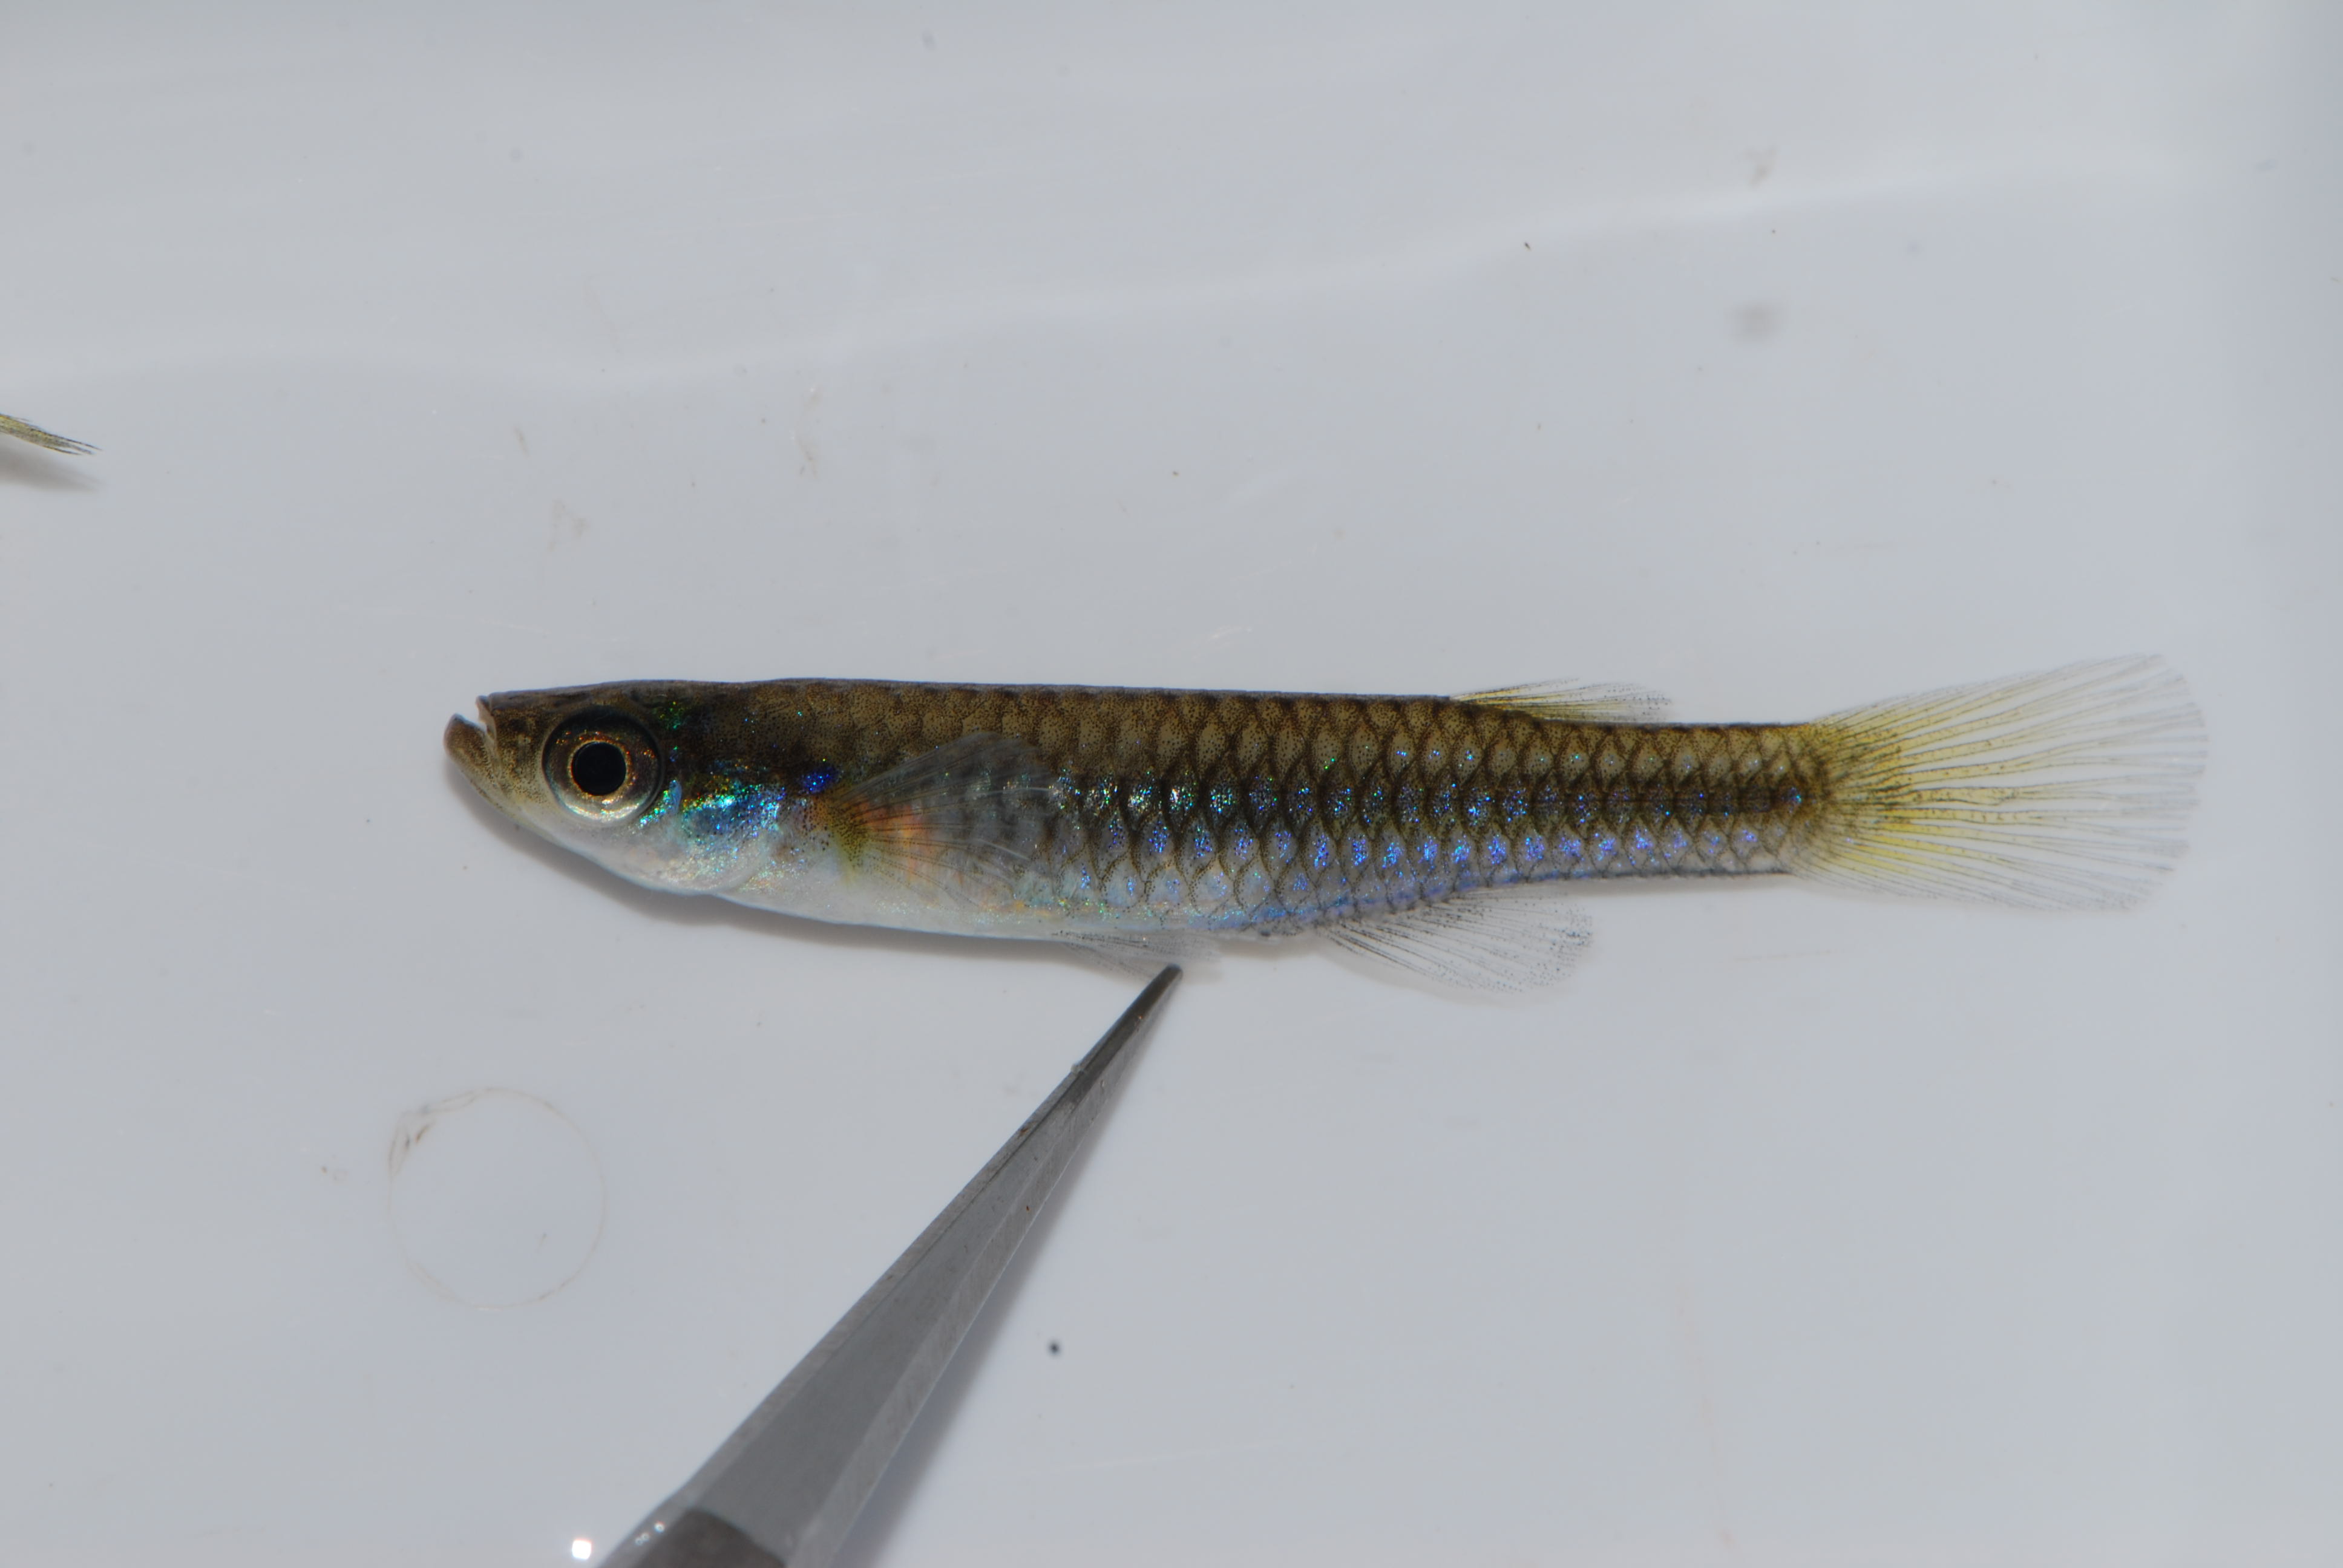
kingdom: Animalia
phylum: Chordata
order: Cyprinodontiformes
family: Poeciliidae
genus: Micropanchax
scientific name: Micropanchax johnstoni
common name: Johnston's topminnow
